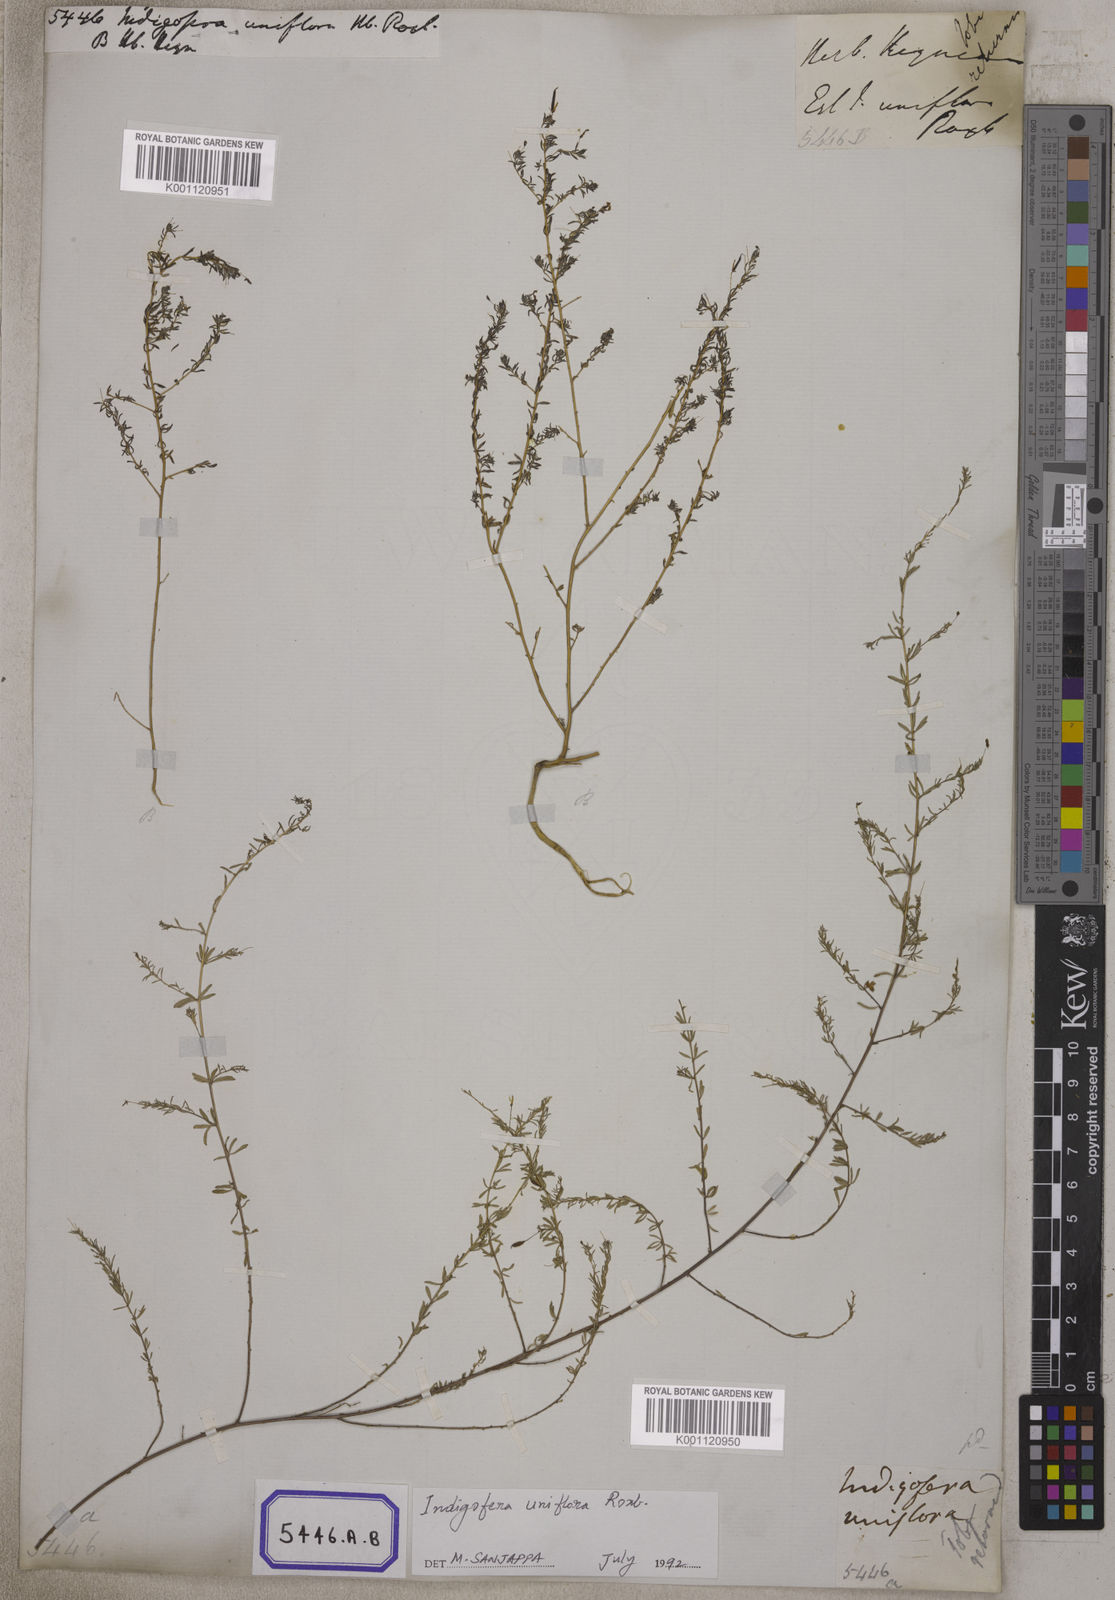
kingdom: Plantae
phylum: Tracheophyta
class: Magnoliopsida
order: Fabales
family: Fabaceae
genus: Indigofera
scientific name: Indigofera
